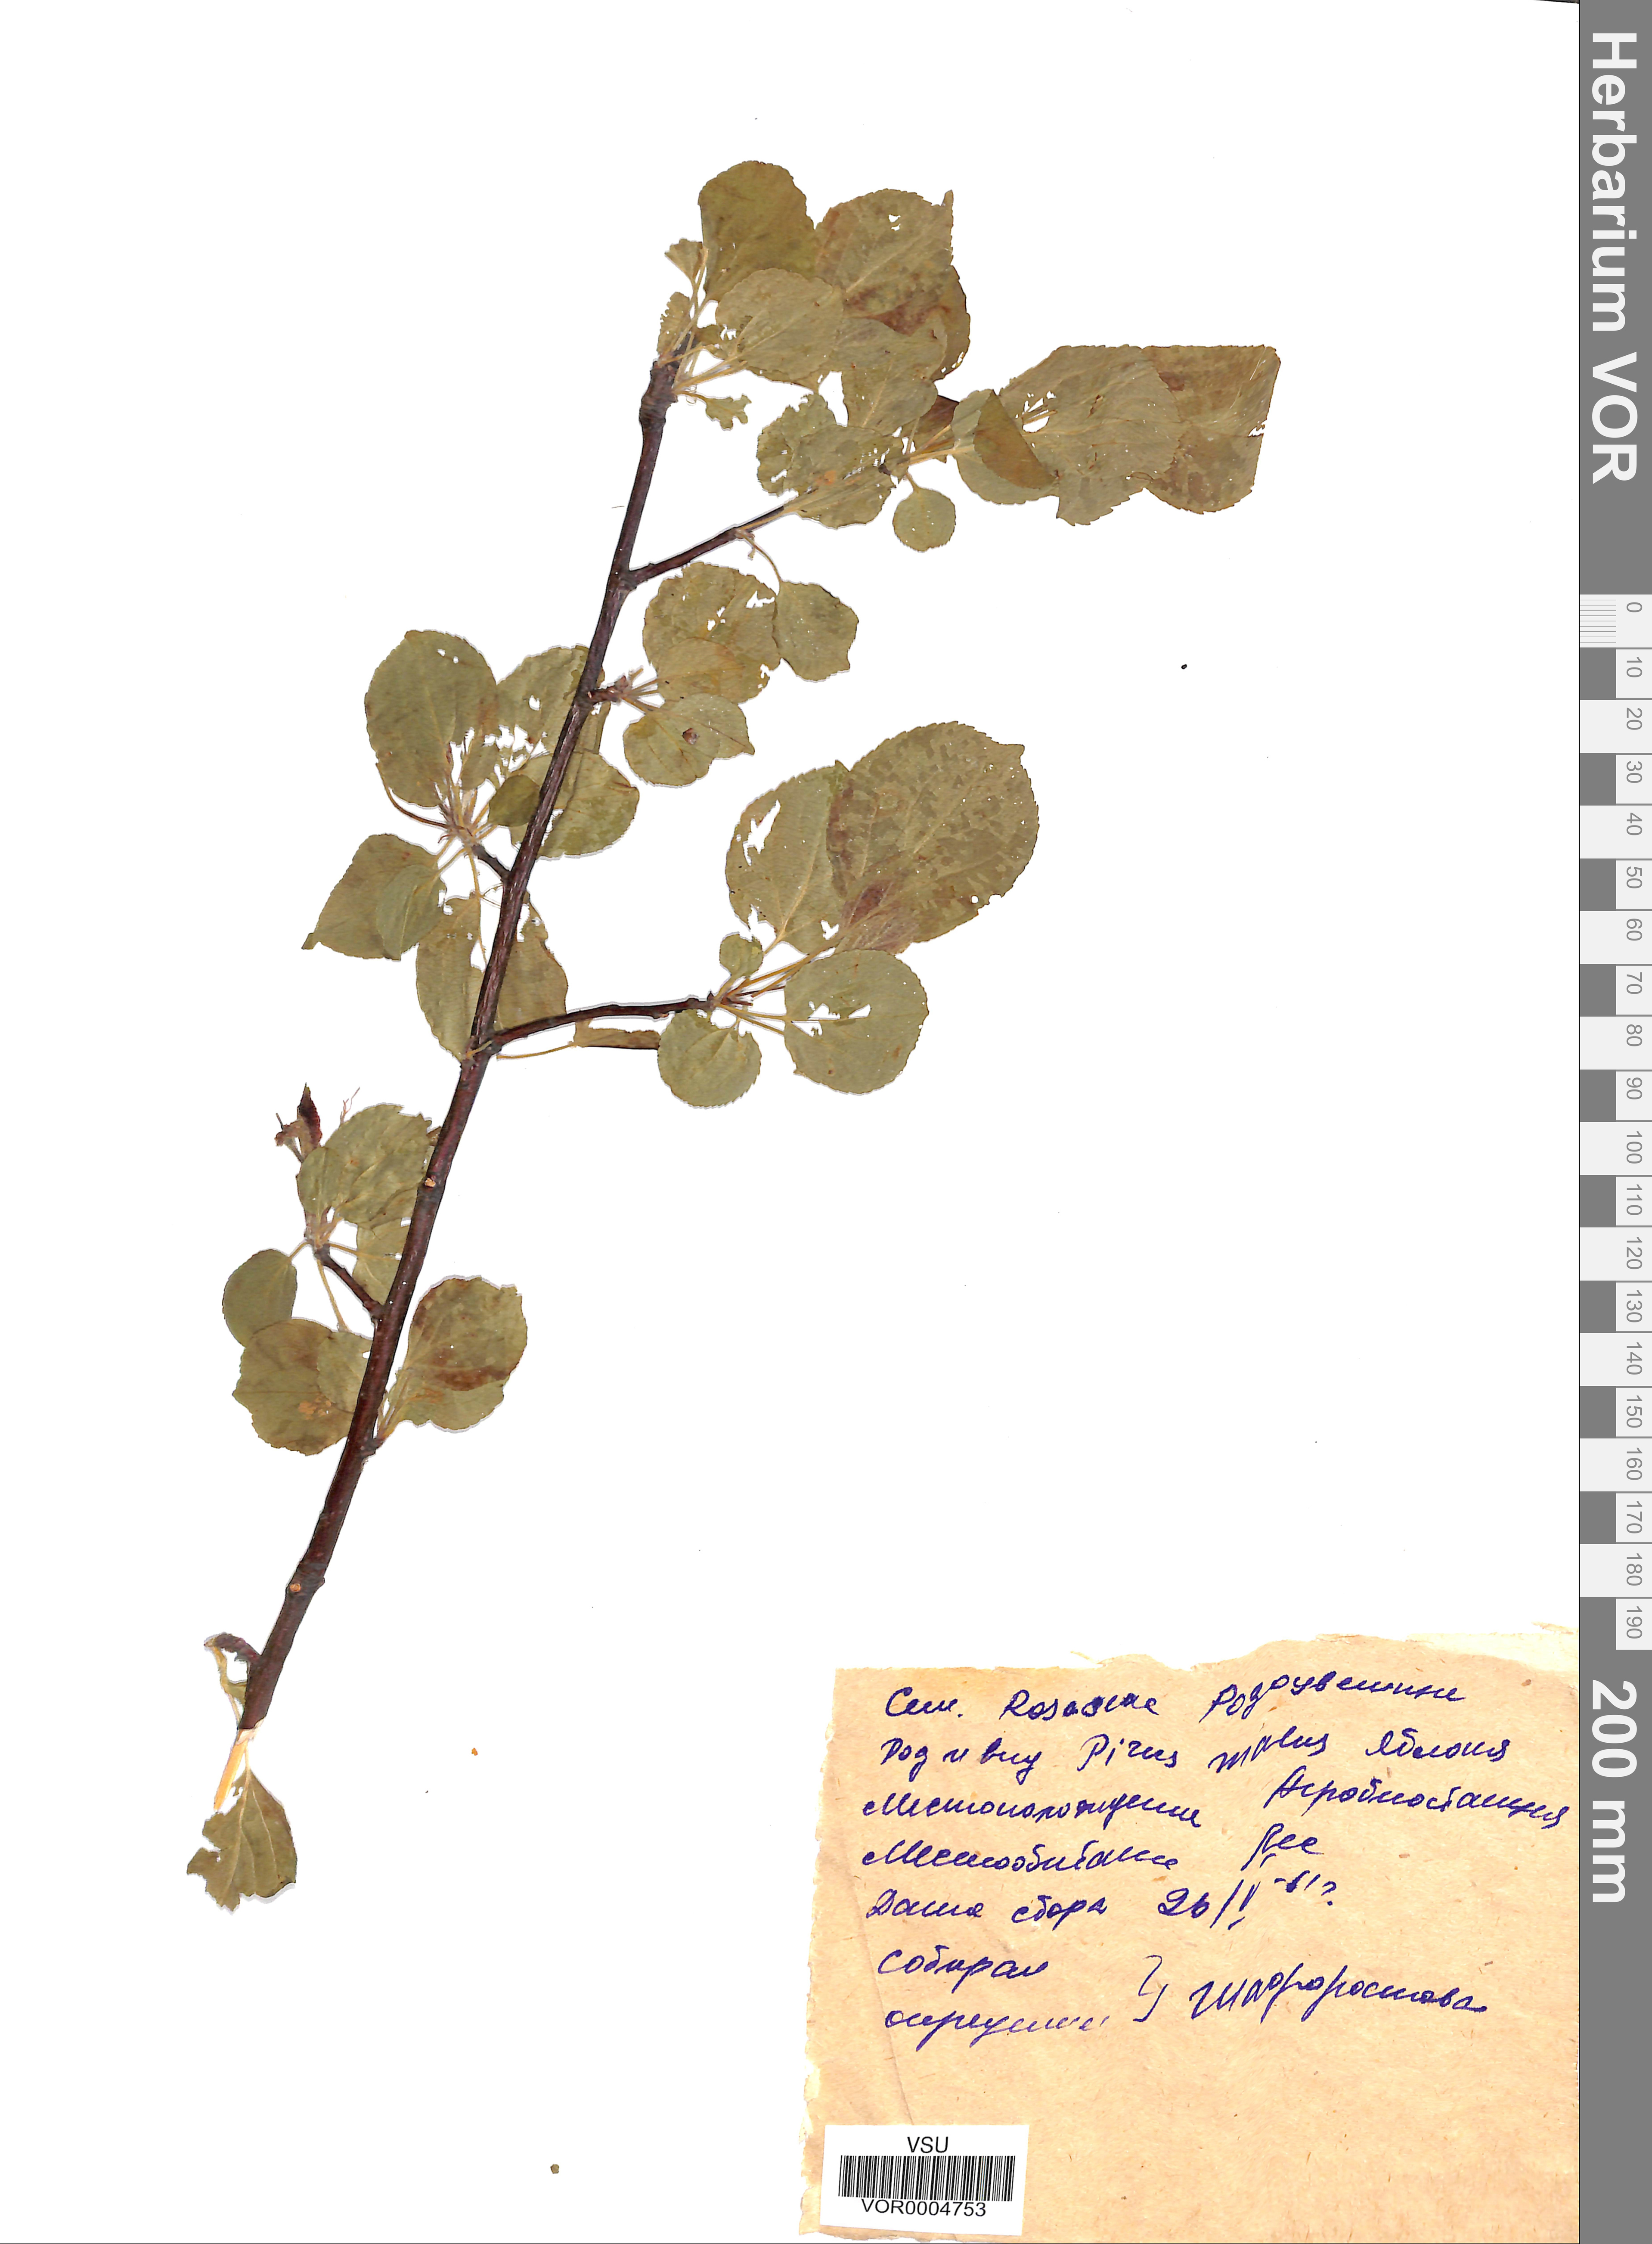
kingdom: Plantae
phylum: Tracheophyta
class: Magnoliopsida
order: Rosales
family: Rosaceae
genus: Malus
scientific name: Malus domestica
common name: Apple
